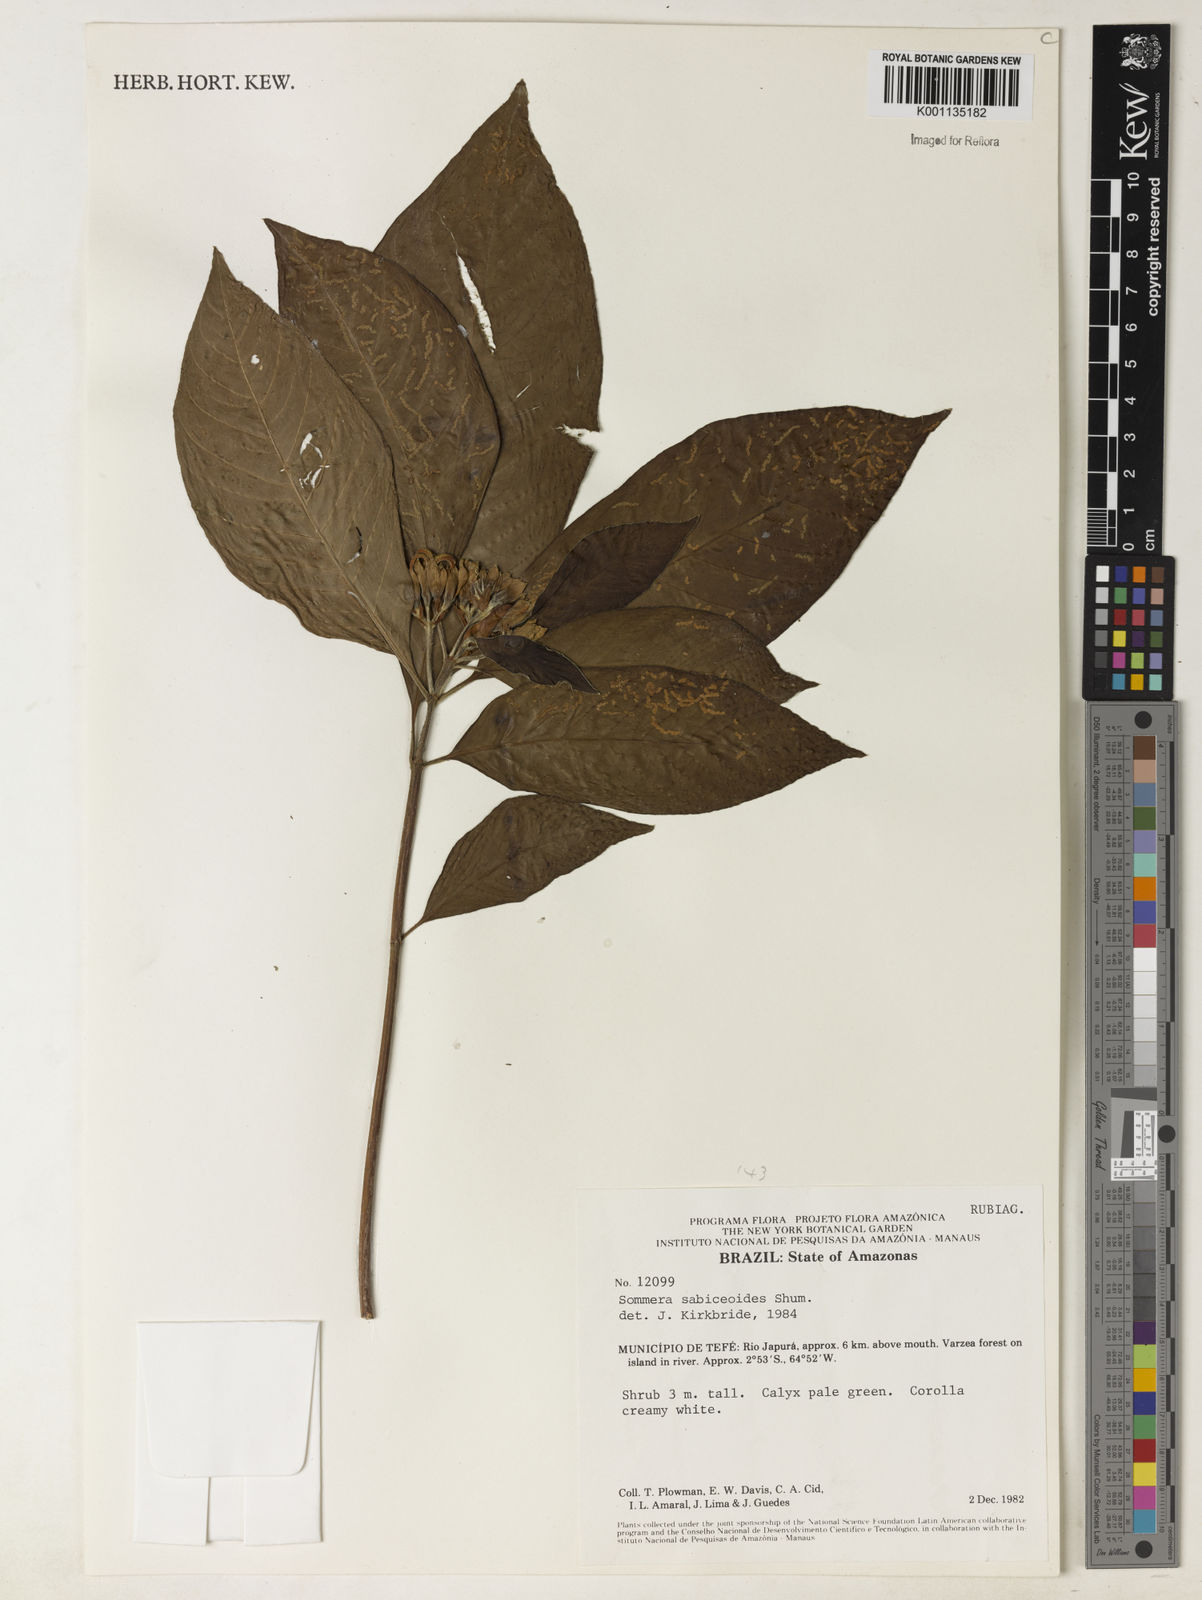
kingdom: Plantae
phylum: Tracheophyta
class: Magnoliopsida
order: Gentianales
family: Rubiaceae
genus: Sommera
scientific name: Sommera sabiceoides
